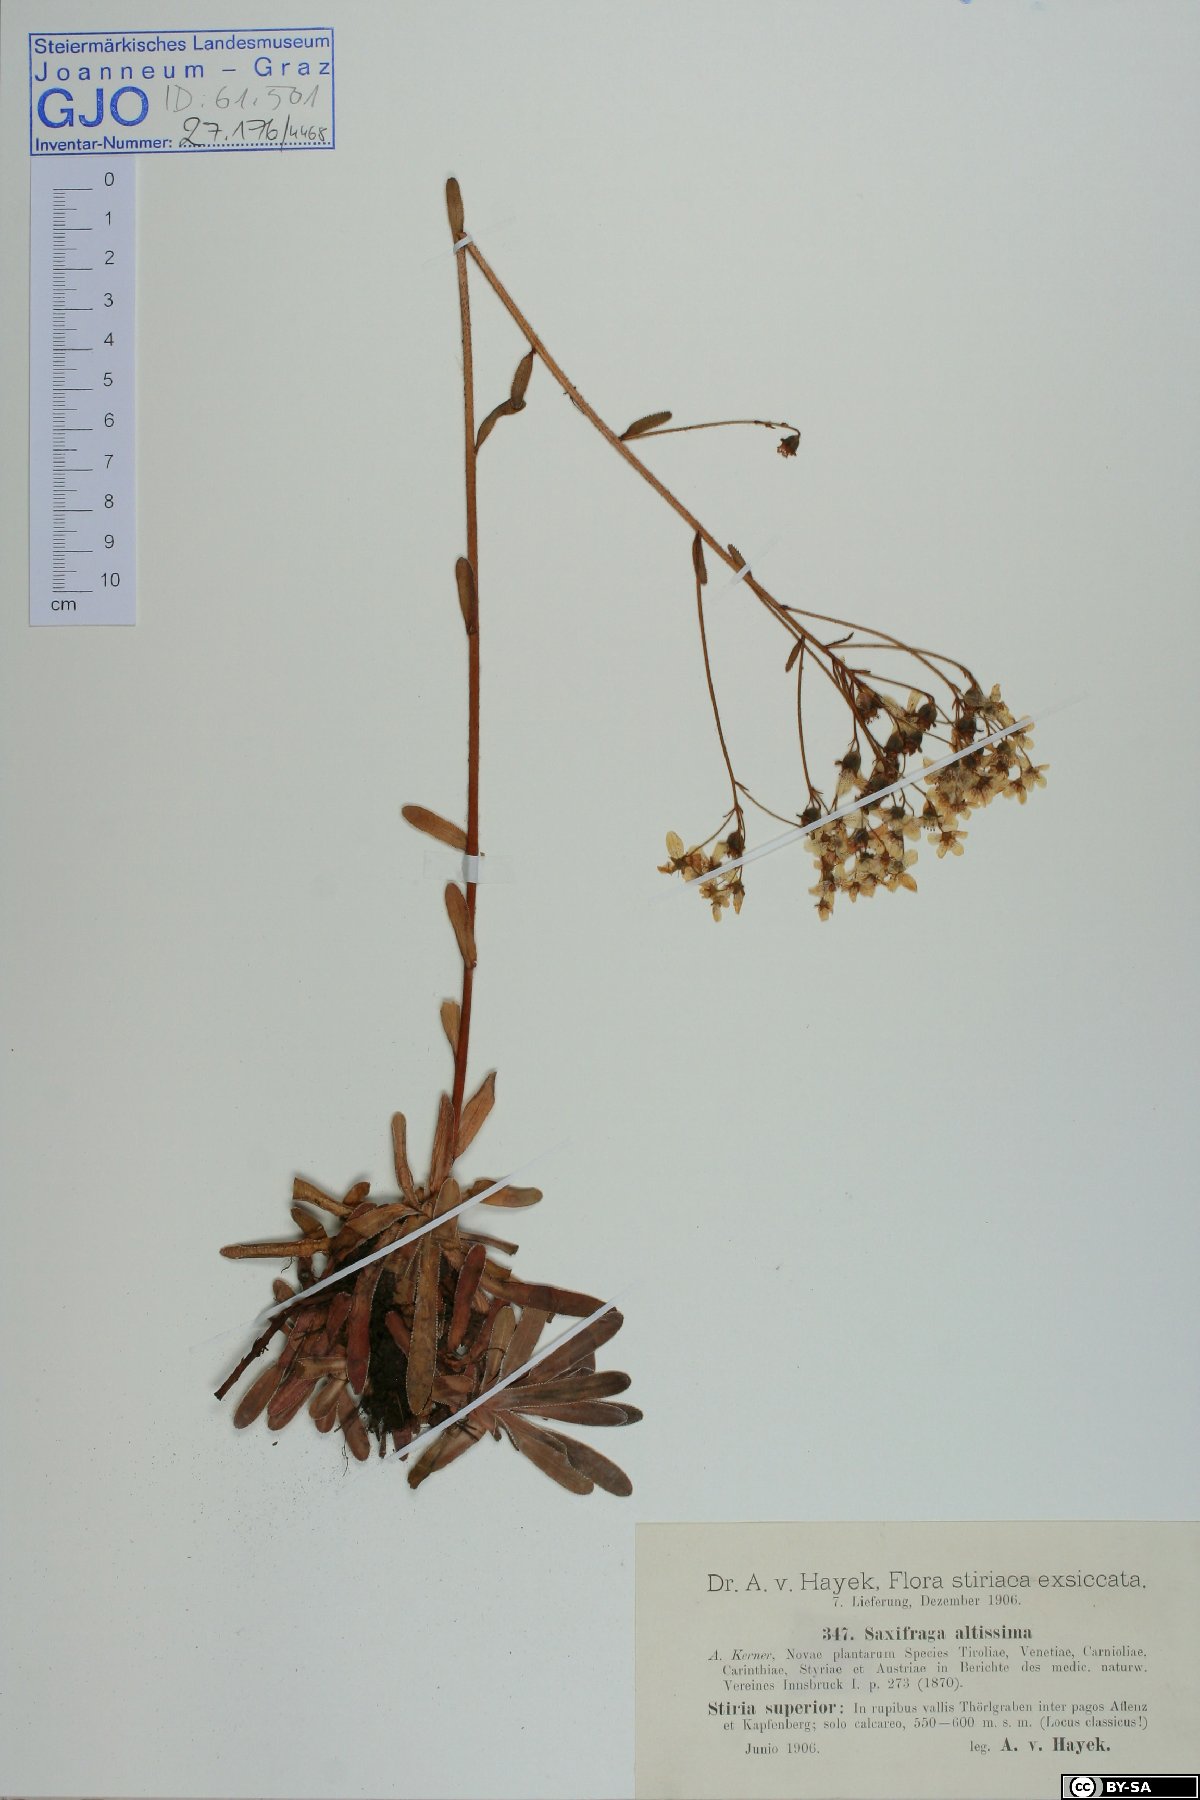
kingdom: Plantae
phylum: Tracheophyta
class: Magnoliopsida
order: Saxifragales
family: Saxifragaceae
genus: Saxifraga
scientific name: Saxifraga hostii
